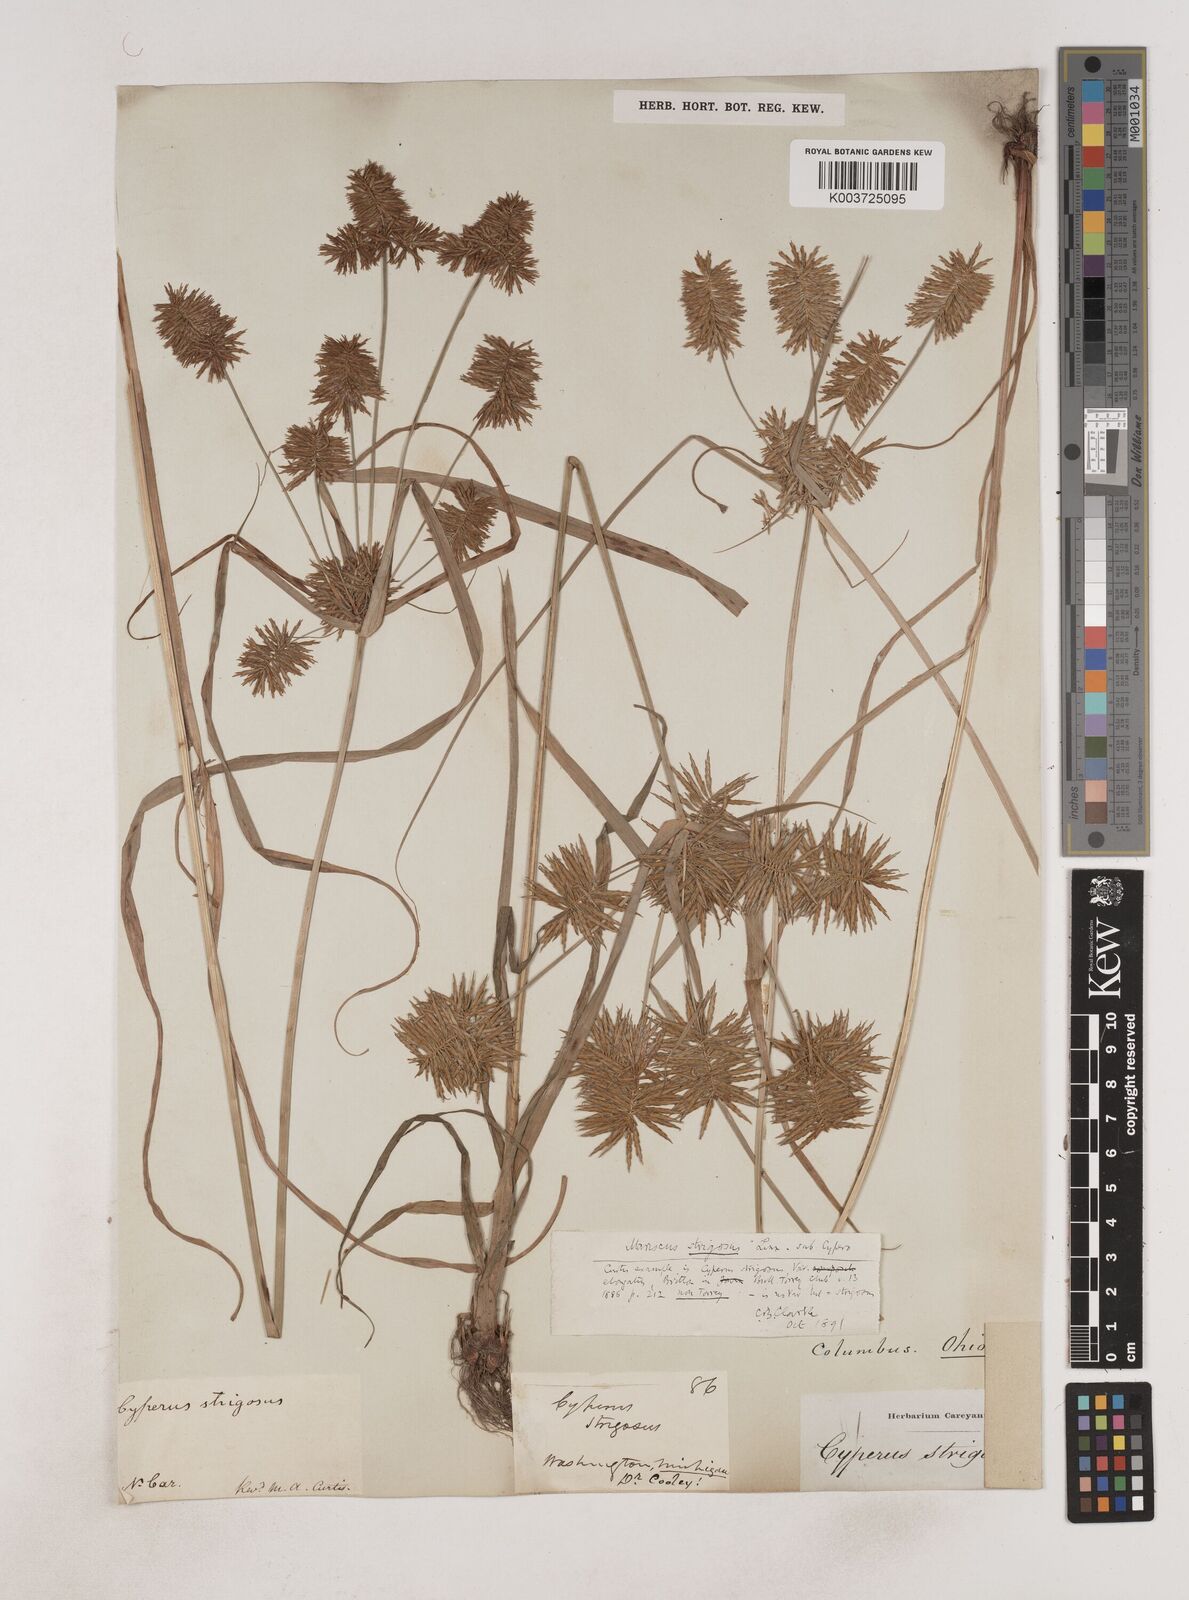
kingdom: Plantae
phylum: Tracheophyta
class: Liliopsida
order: Poales
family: Cyperaceae
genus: Cyperus
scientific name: Cyperus strigosus
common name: False nutsedge
